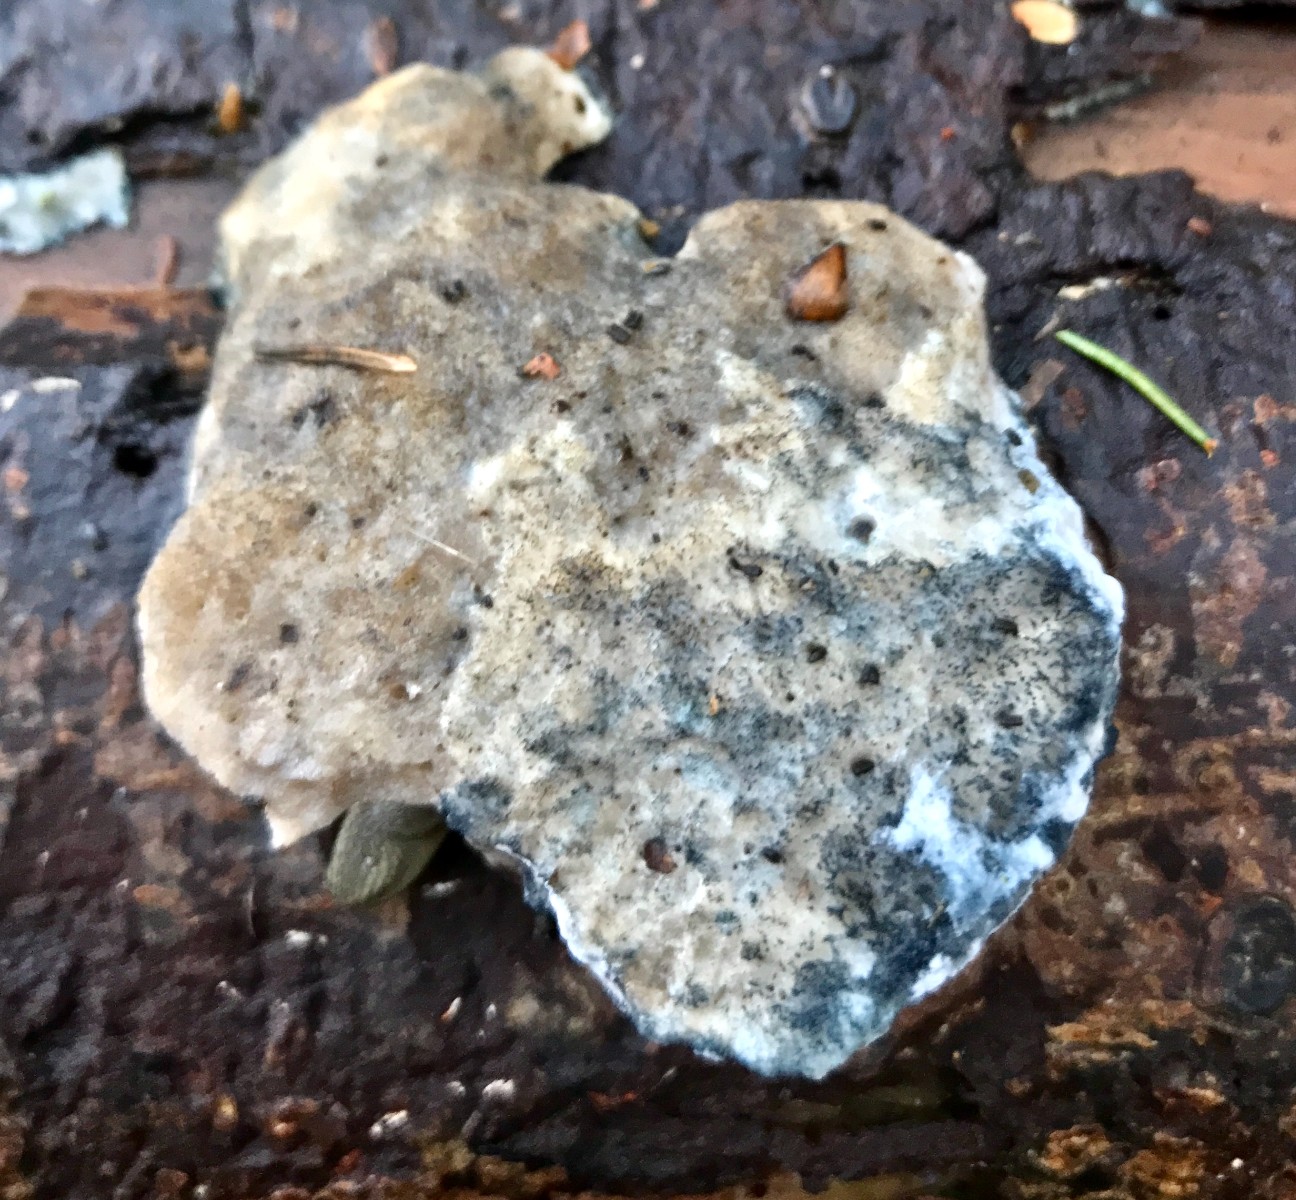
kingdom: Fungi
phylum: Basidiomycota
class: Agaricomycetes
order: Polyporales
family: Polyporaceae
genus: Cyanosporus
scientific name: Cyanosporus caesius
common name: blålig kødporesvamp
